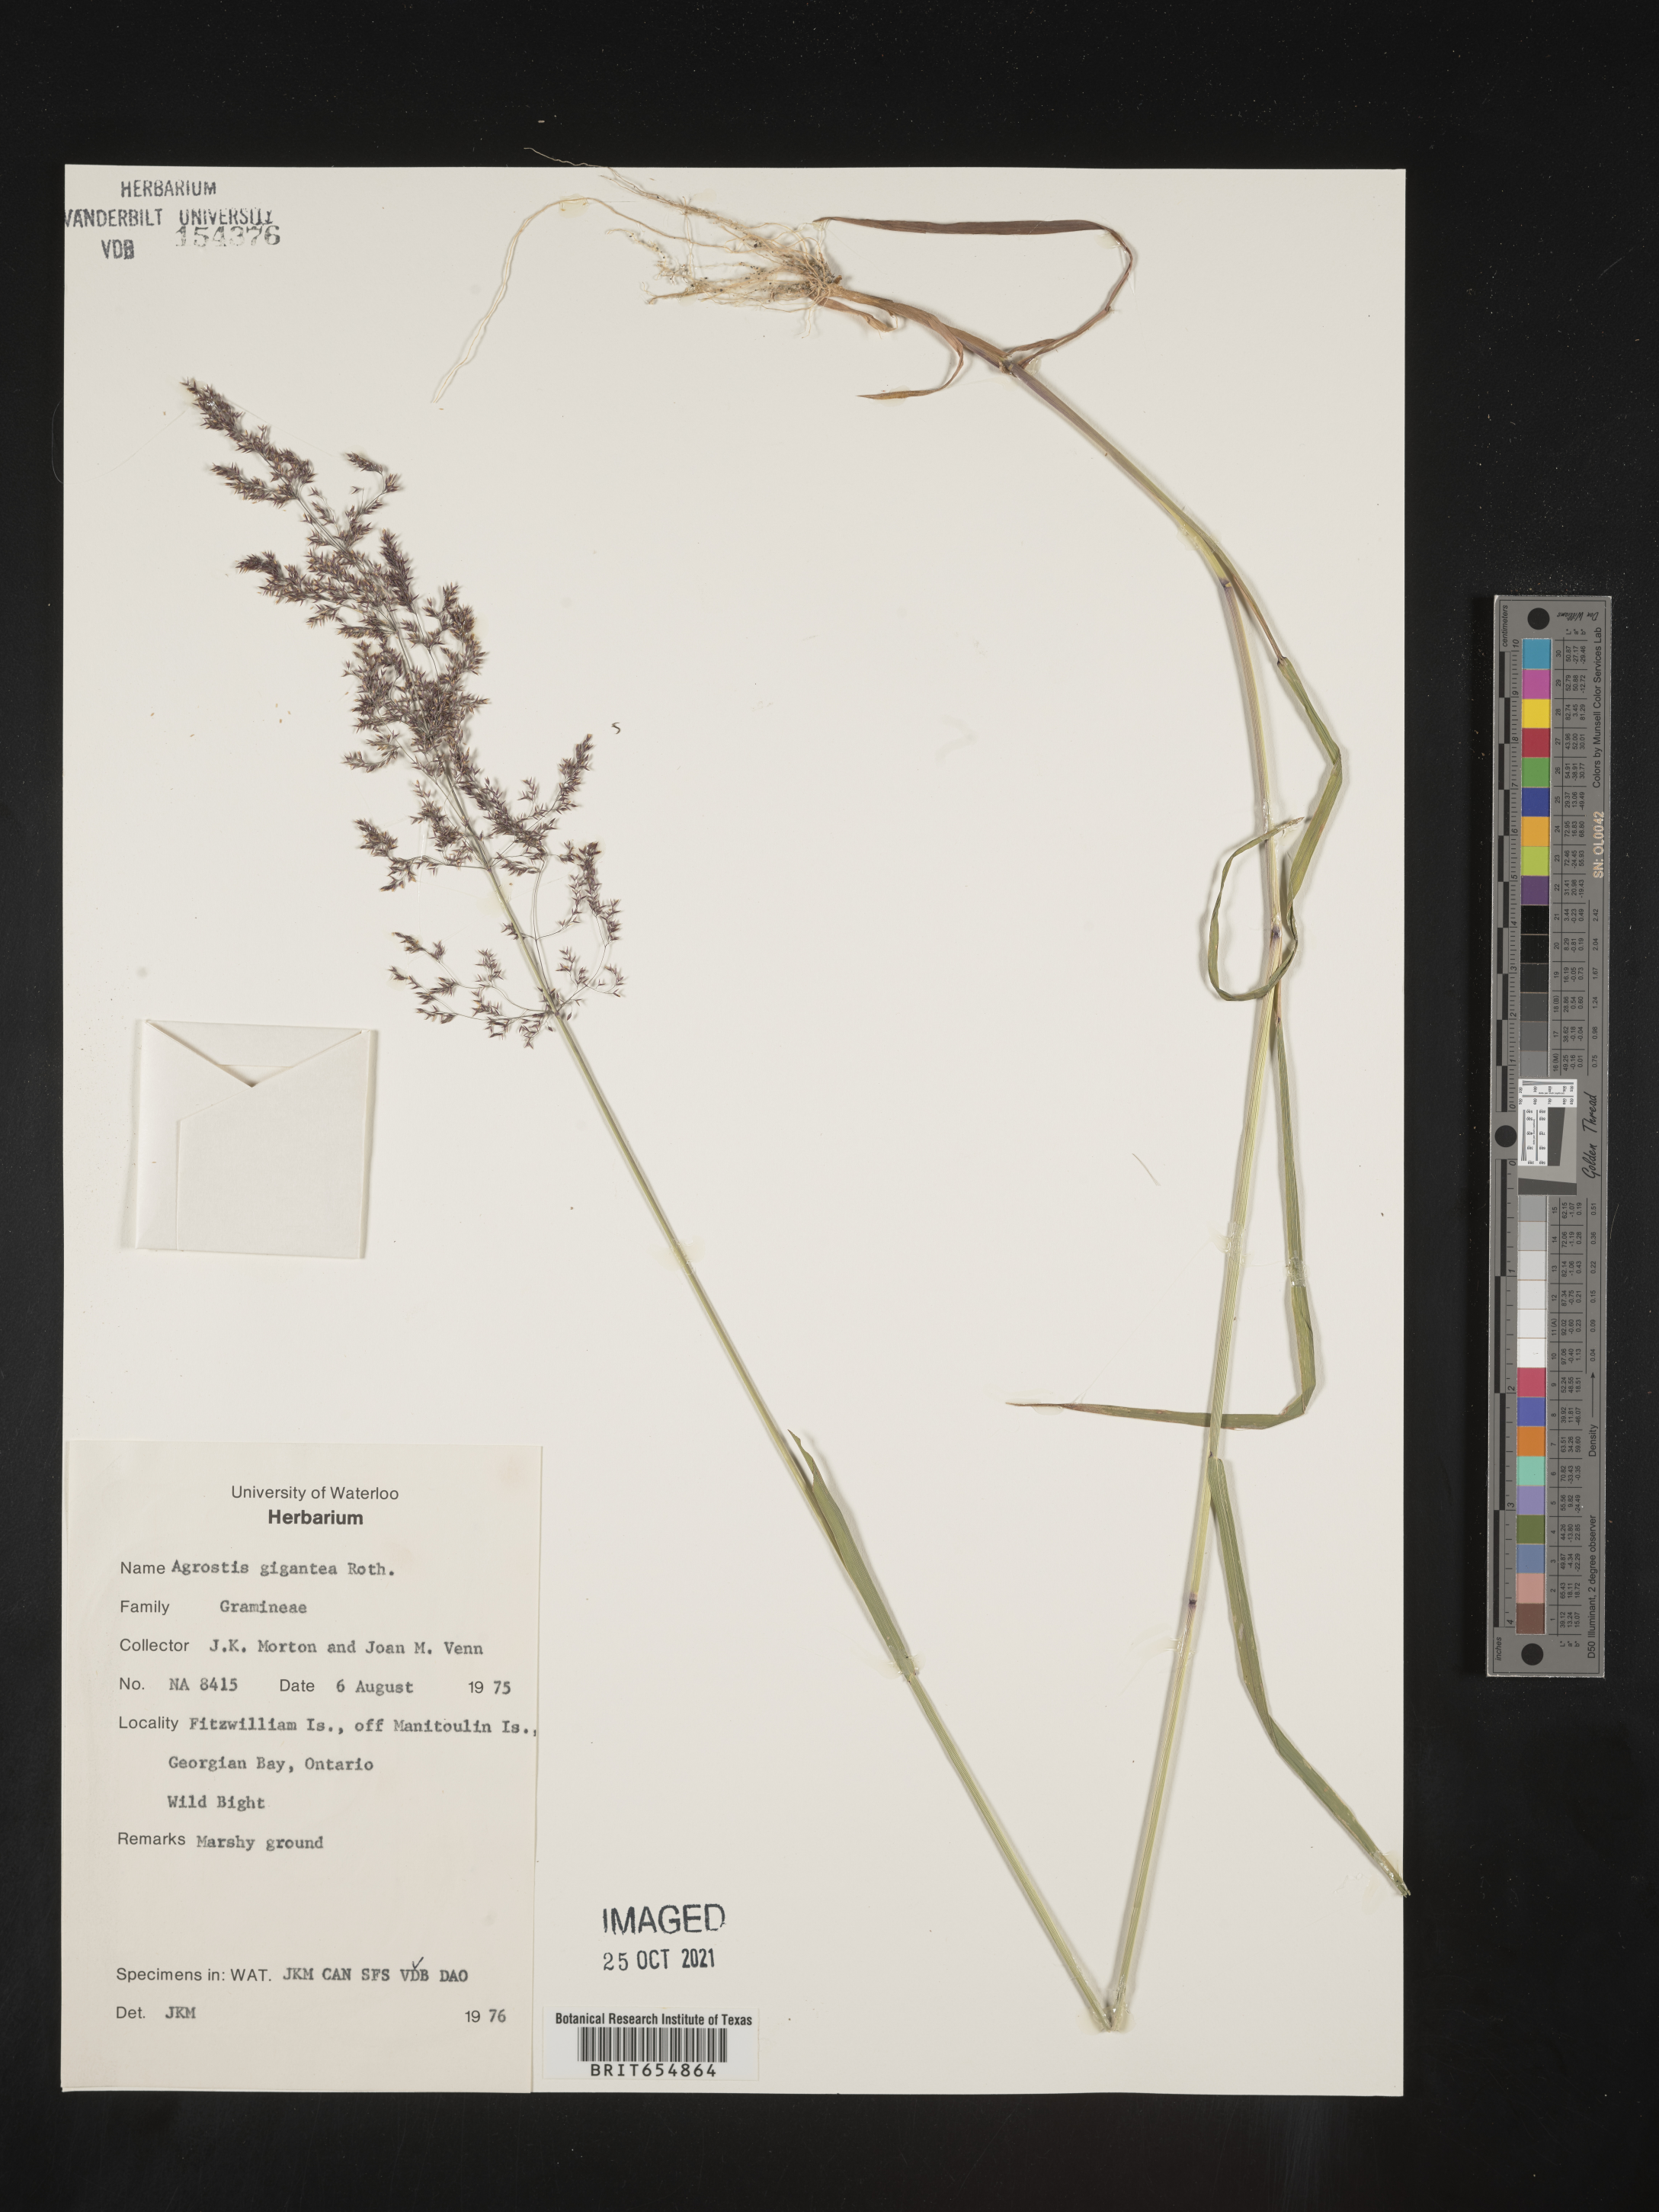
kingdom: Plantae
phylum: Tracheophyta
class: Liliopsida
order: Poales
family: Poaceae
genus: Agrostis
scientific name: Agrostis
